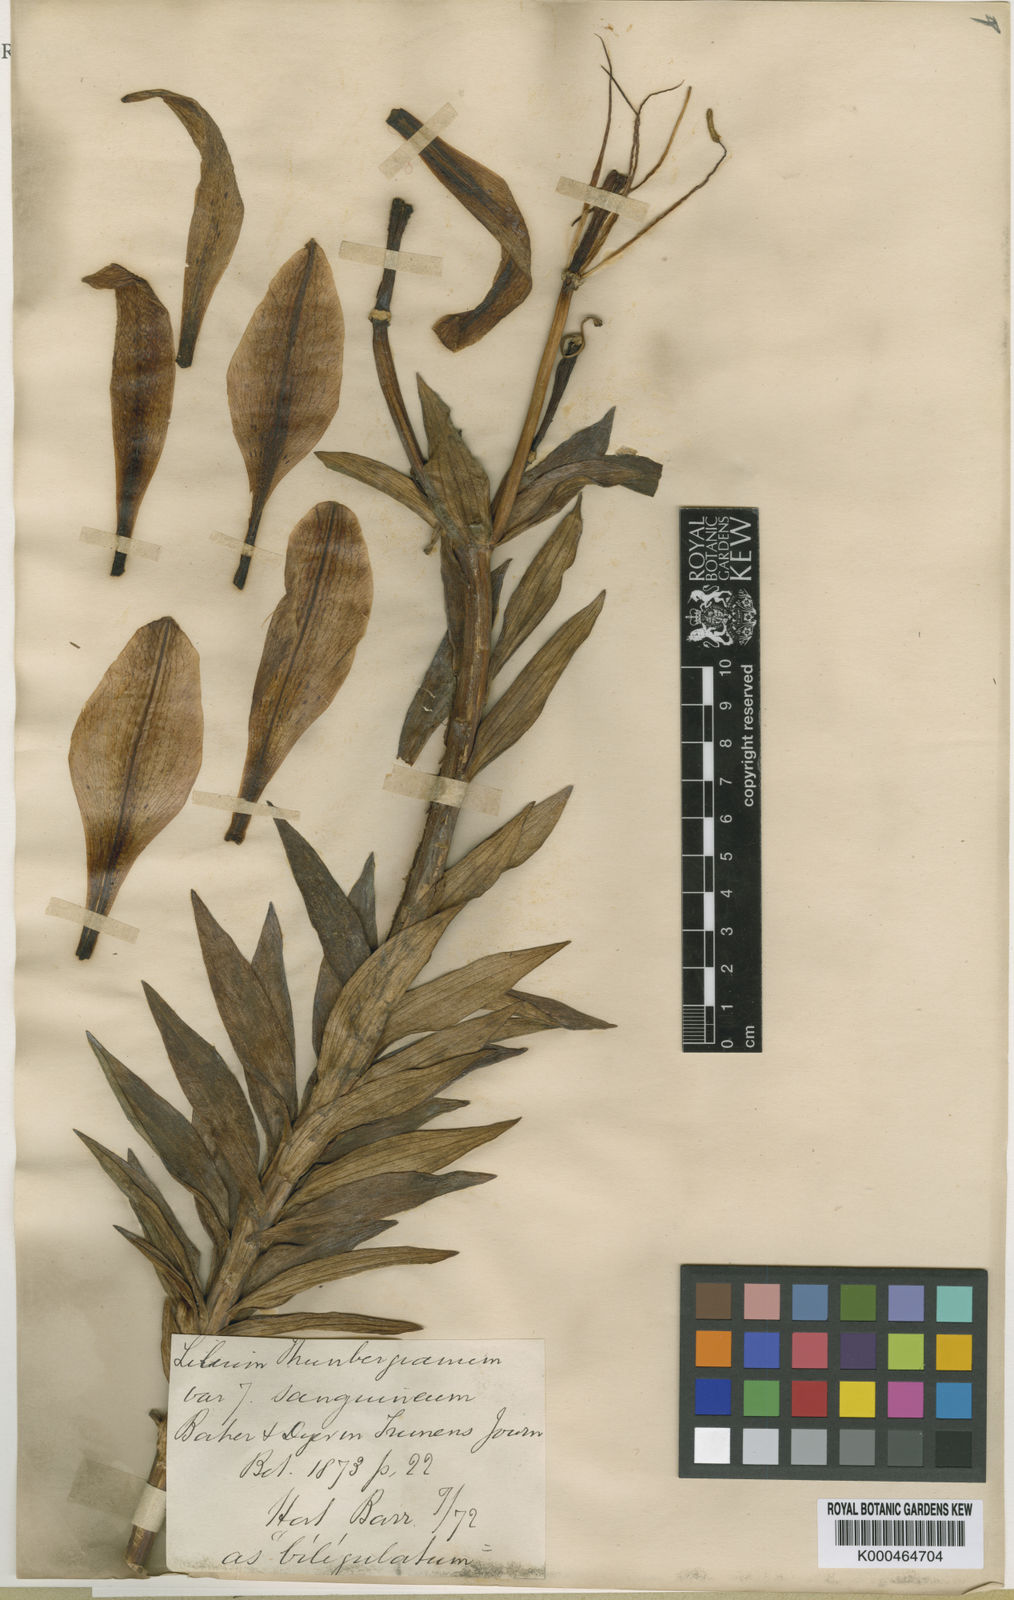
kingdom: Plantae
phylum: Tracheophyta
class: Liliopsida
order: Liliales
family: Liliaceae
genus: Lilium
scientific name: Lilium
